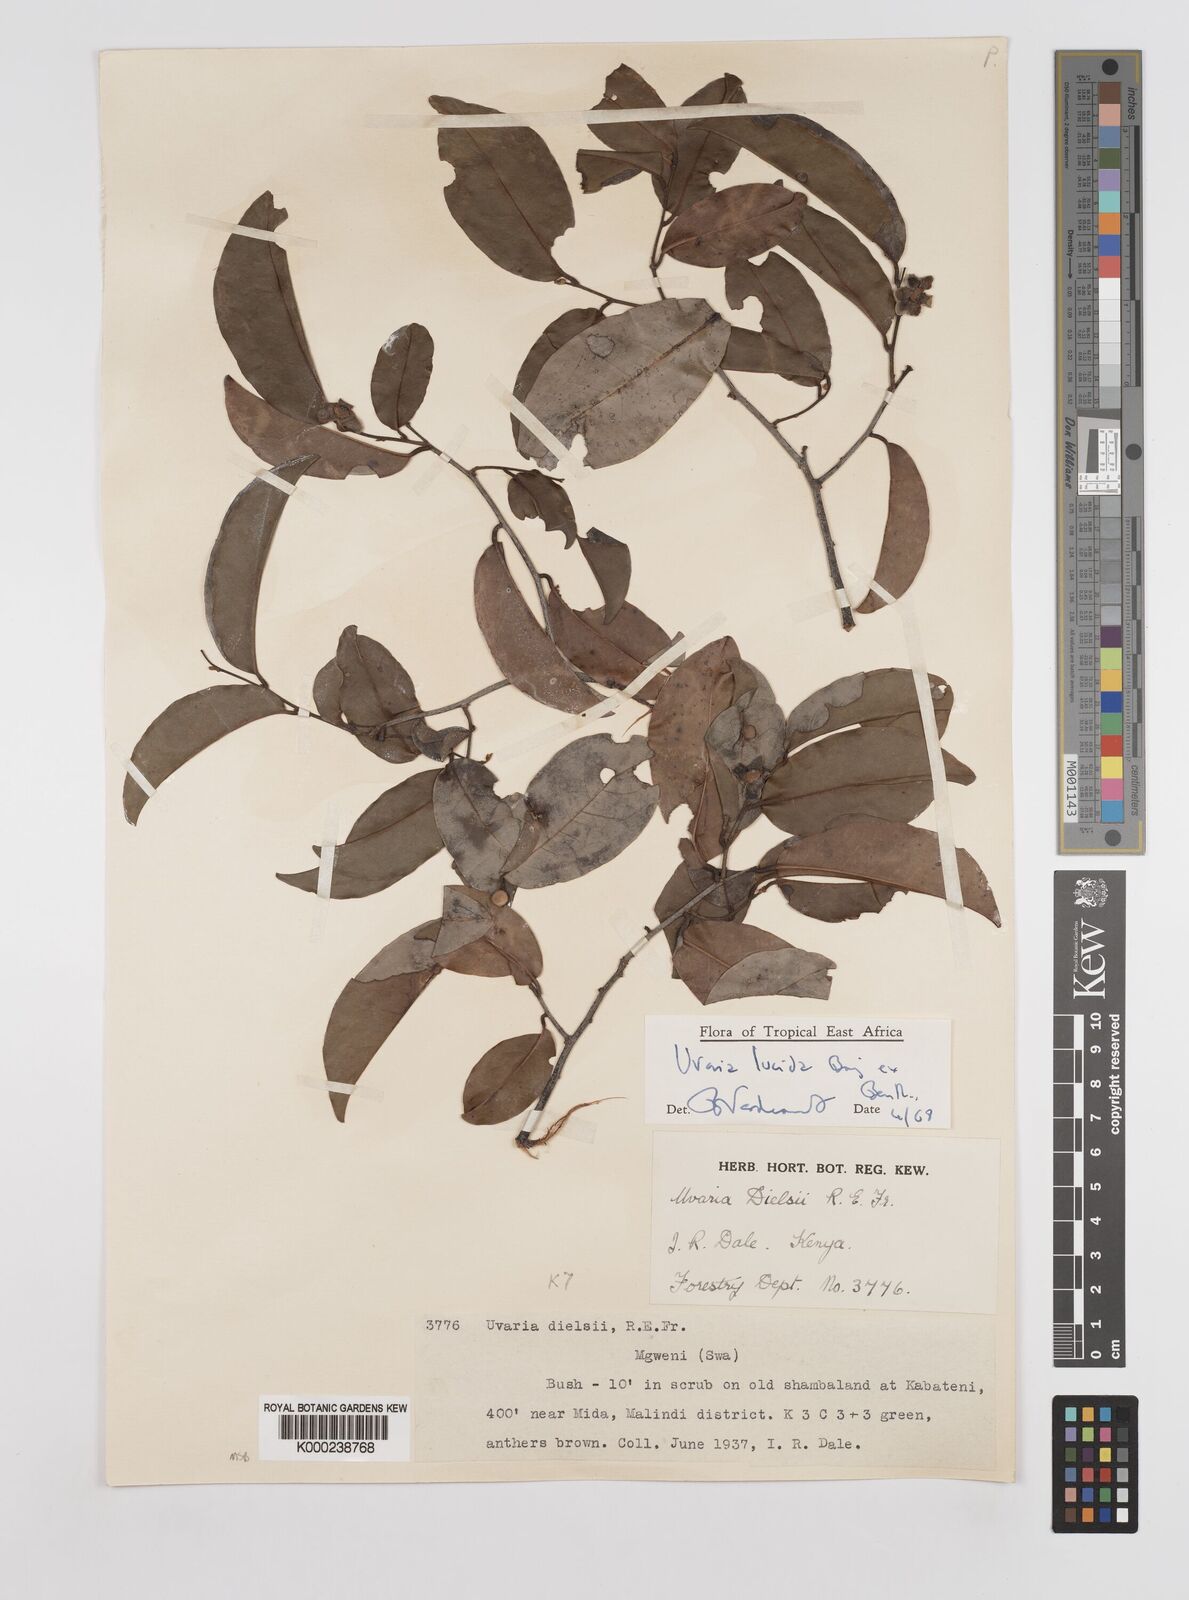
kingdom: Plantae
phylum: Tracheophyta
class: Magnoliopsida
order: Magnoliales
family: Annonaceae
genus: Uvaria
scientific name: Uvaria lucida
